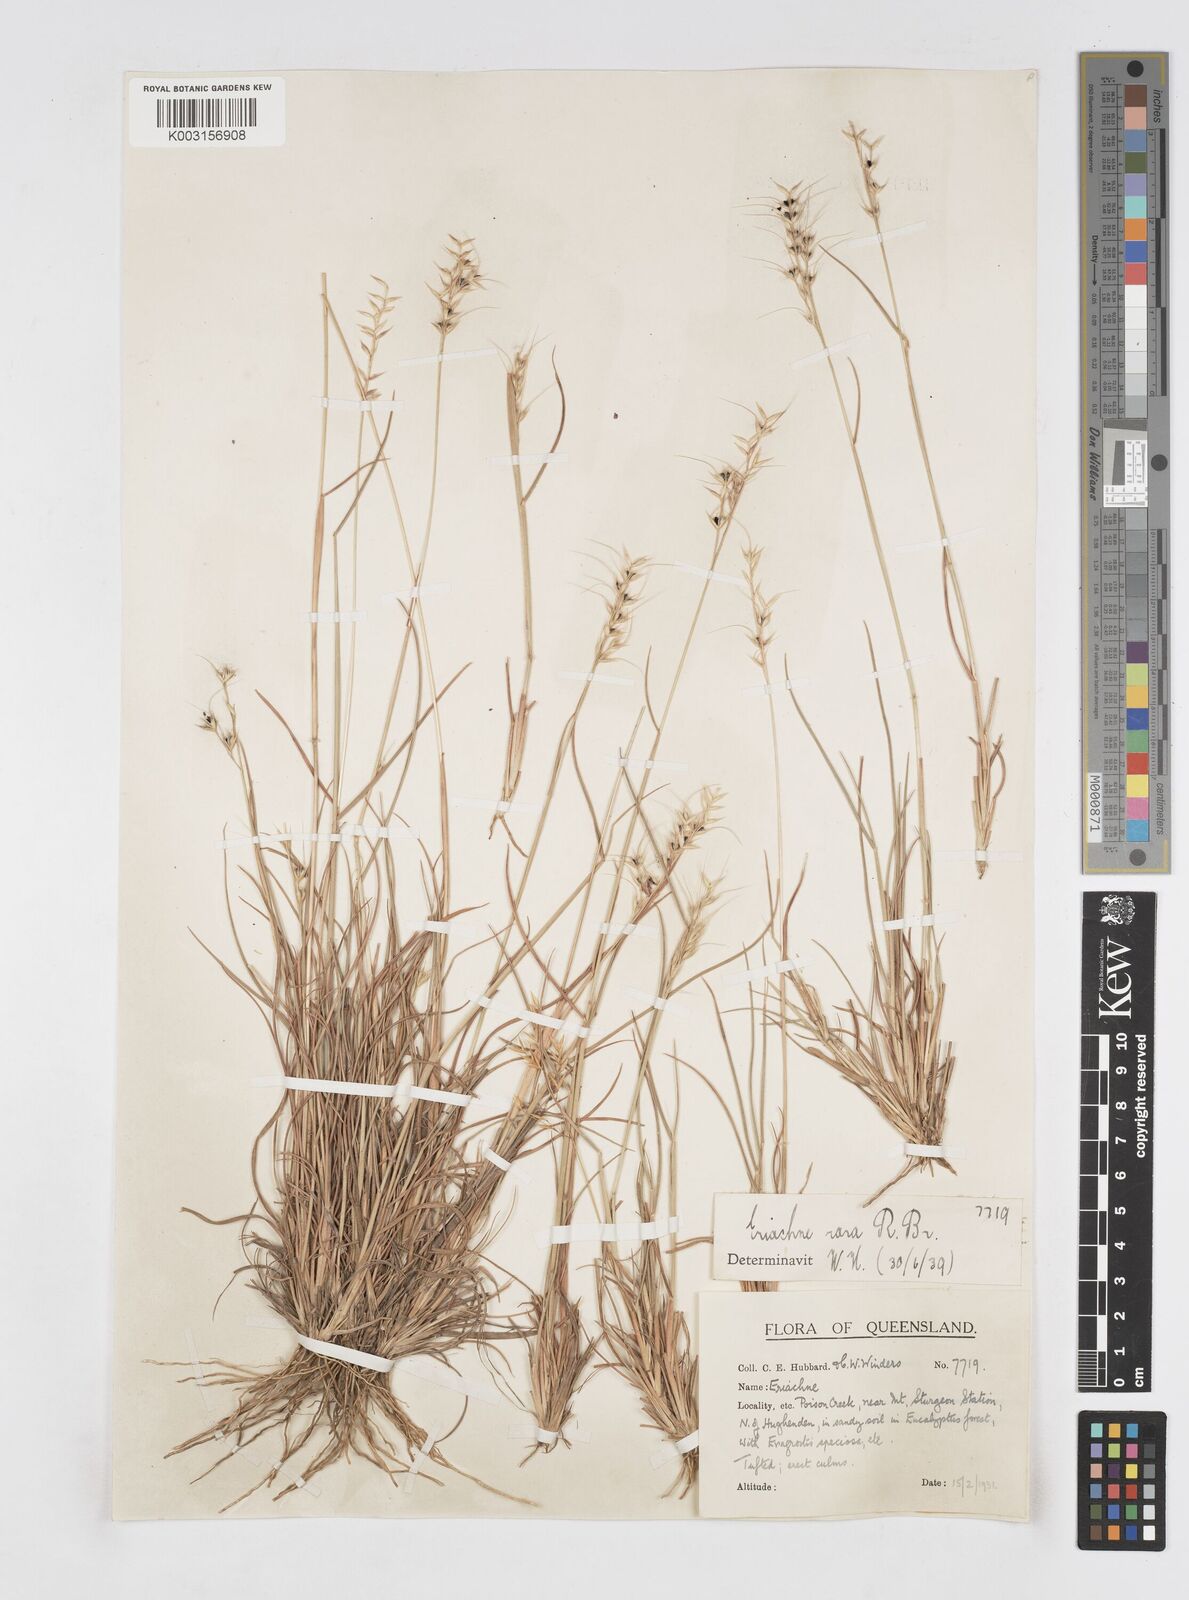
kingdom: Plantae
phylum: Tracheophyta
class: Liliopsida
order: Poales
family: Poaceae
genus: Eriachne
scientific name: Eriachne rara
